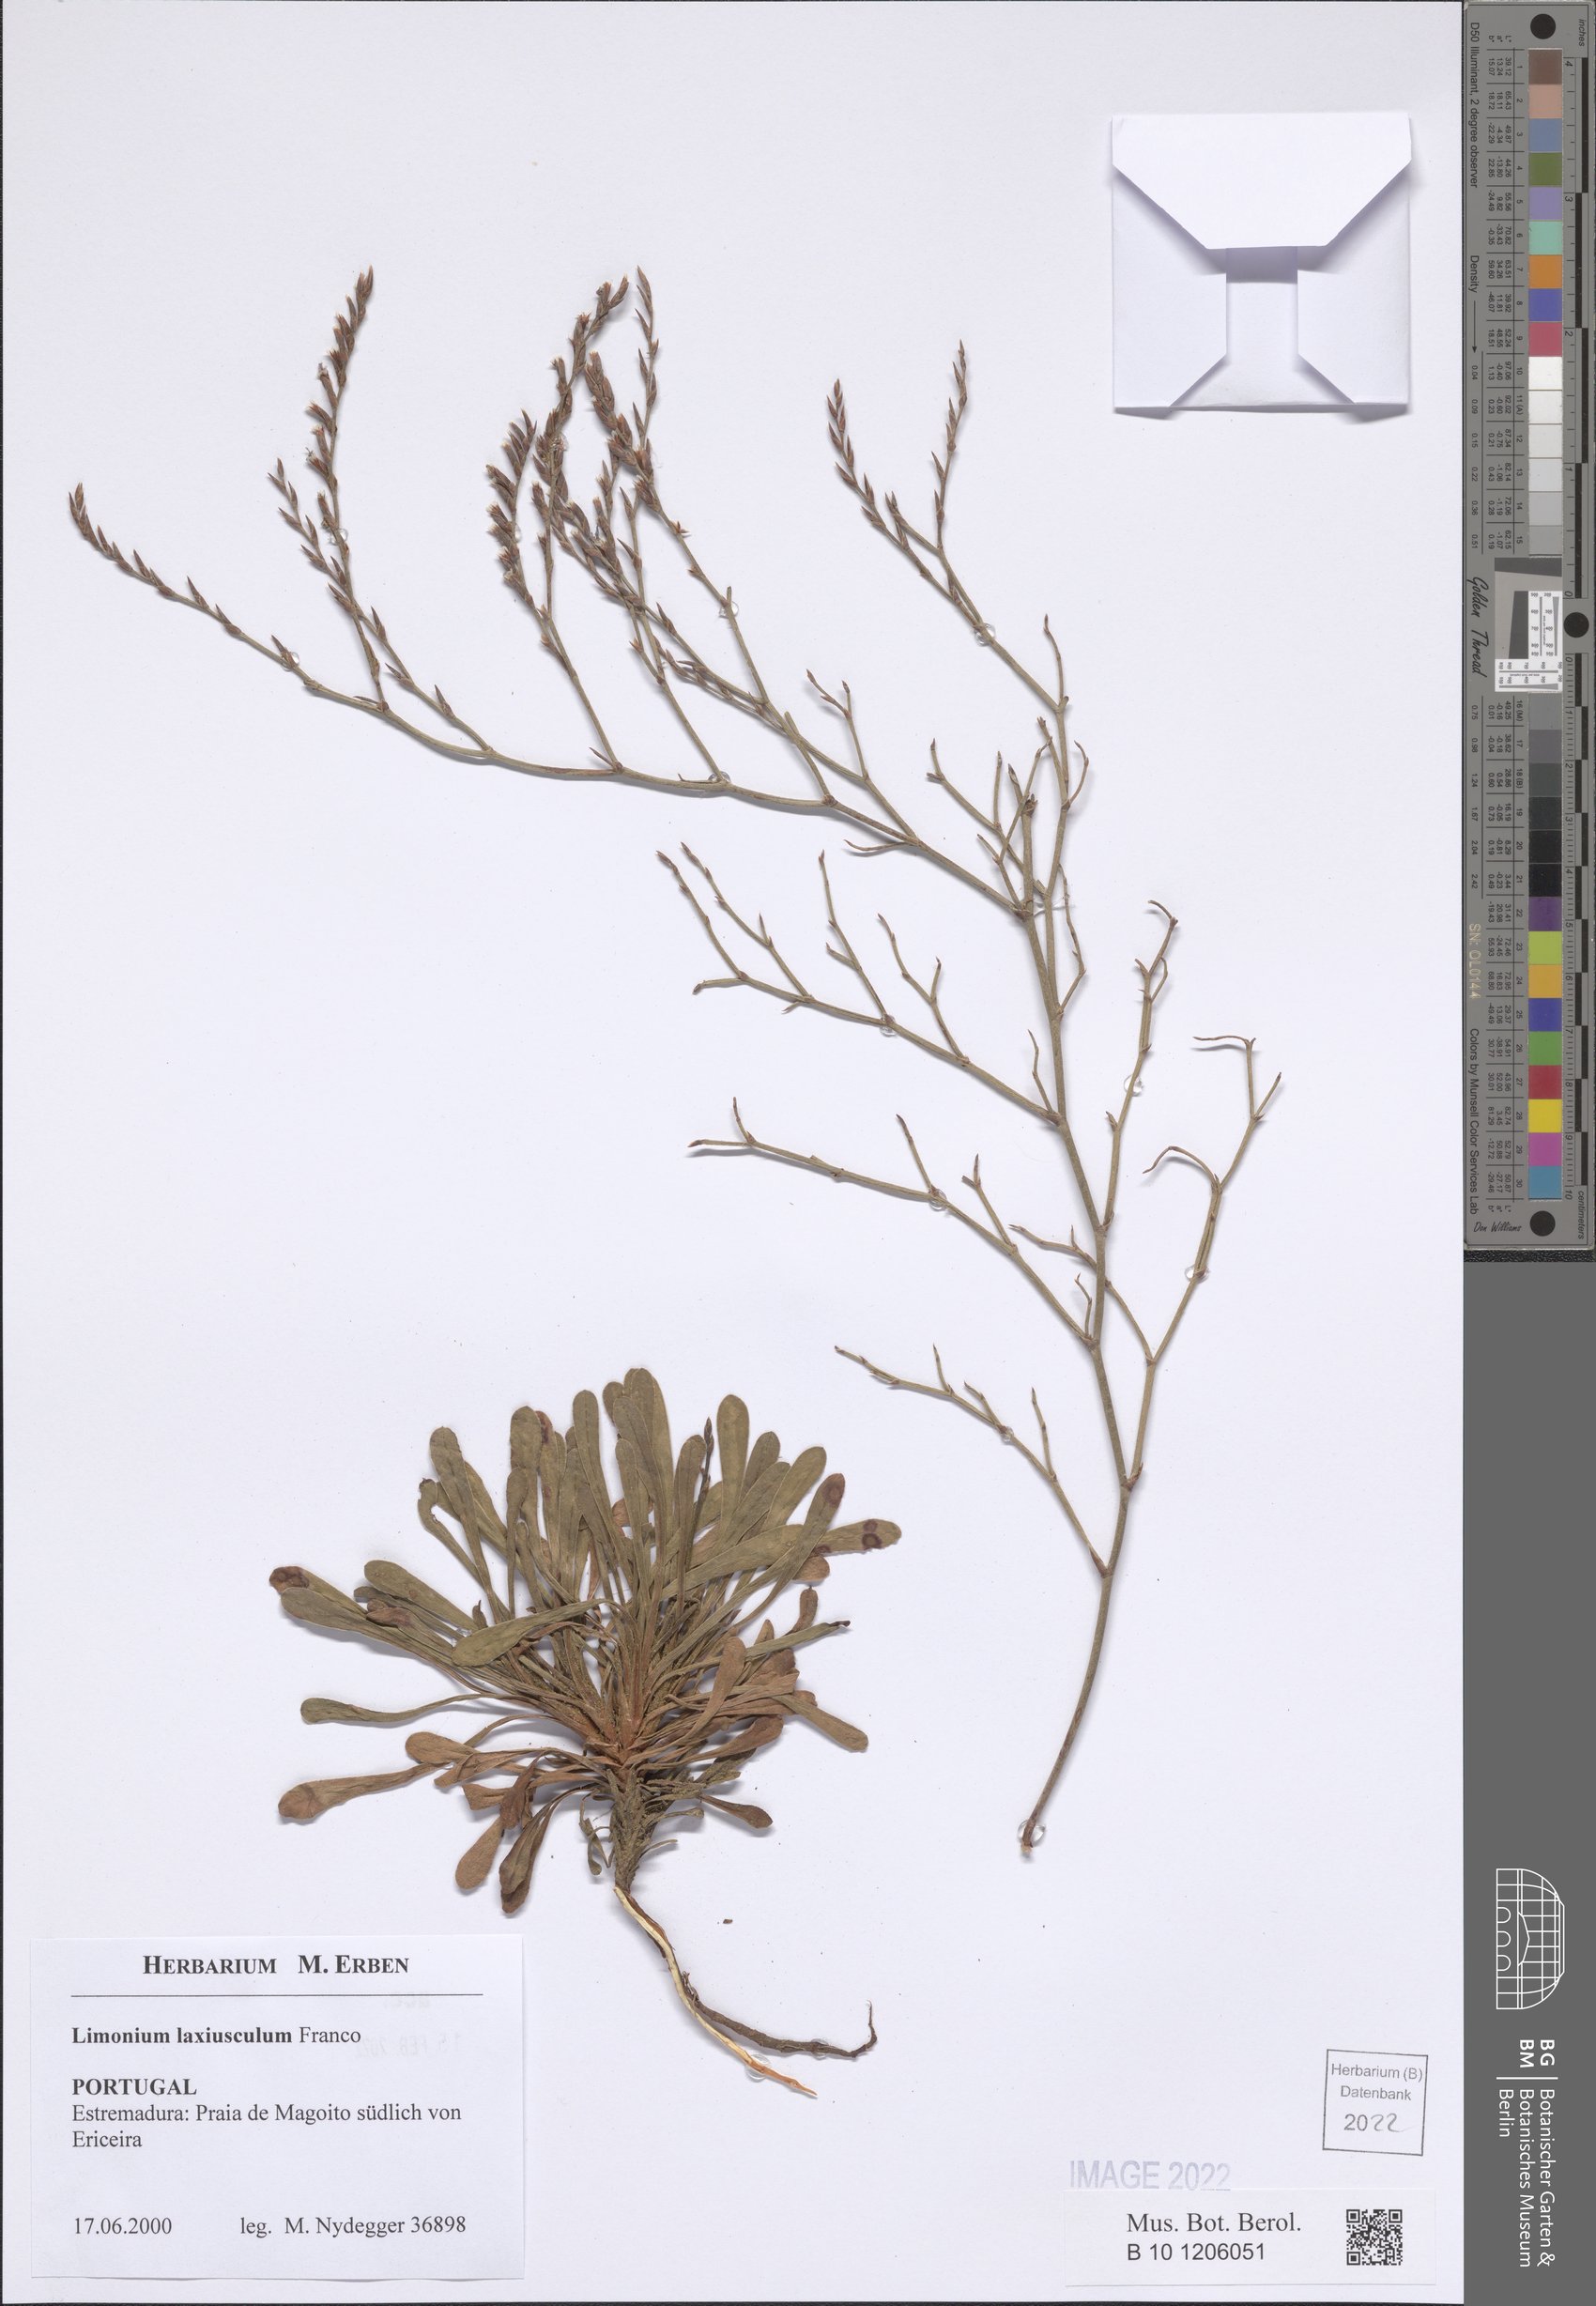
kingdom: Plantae
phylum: Tracheophyta
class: Magnoliopsida
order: Caryophyllales
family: Plumbaginaceae
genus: Limonium
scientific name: Limonium laxiusculum
